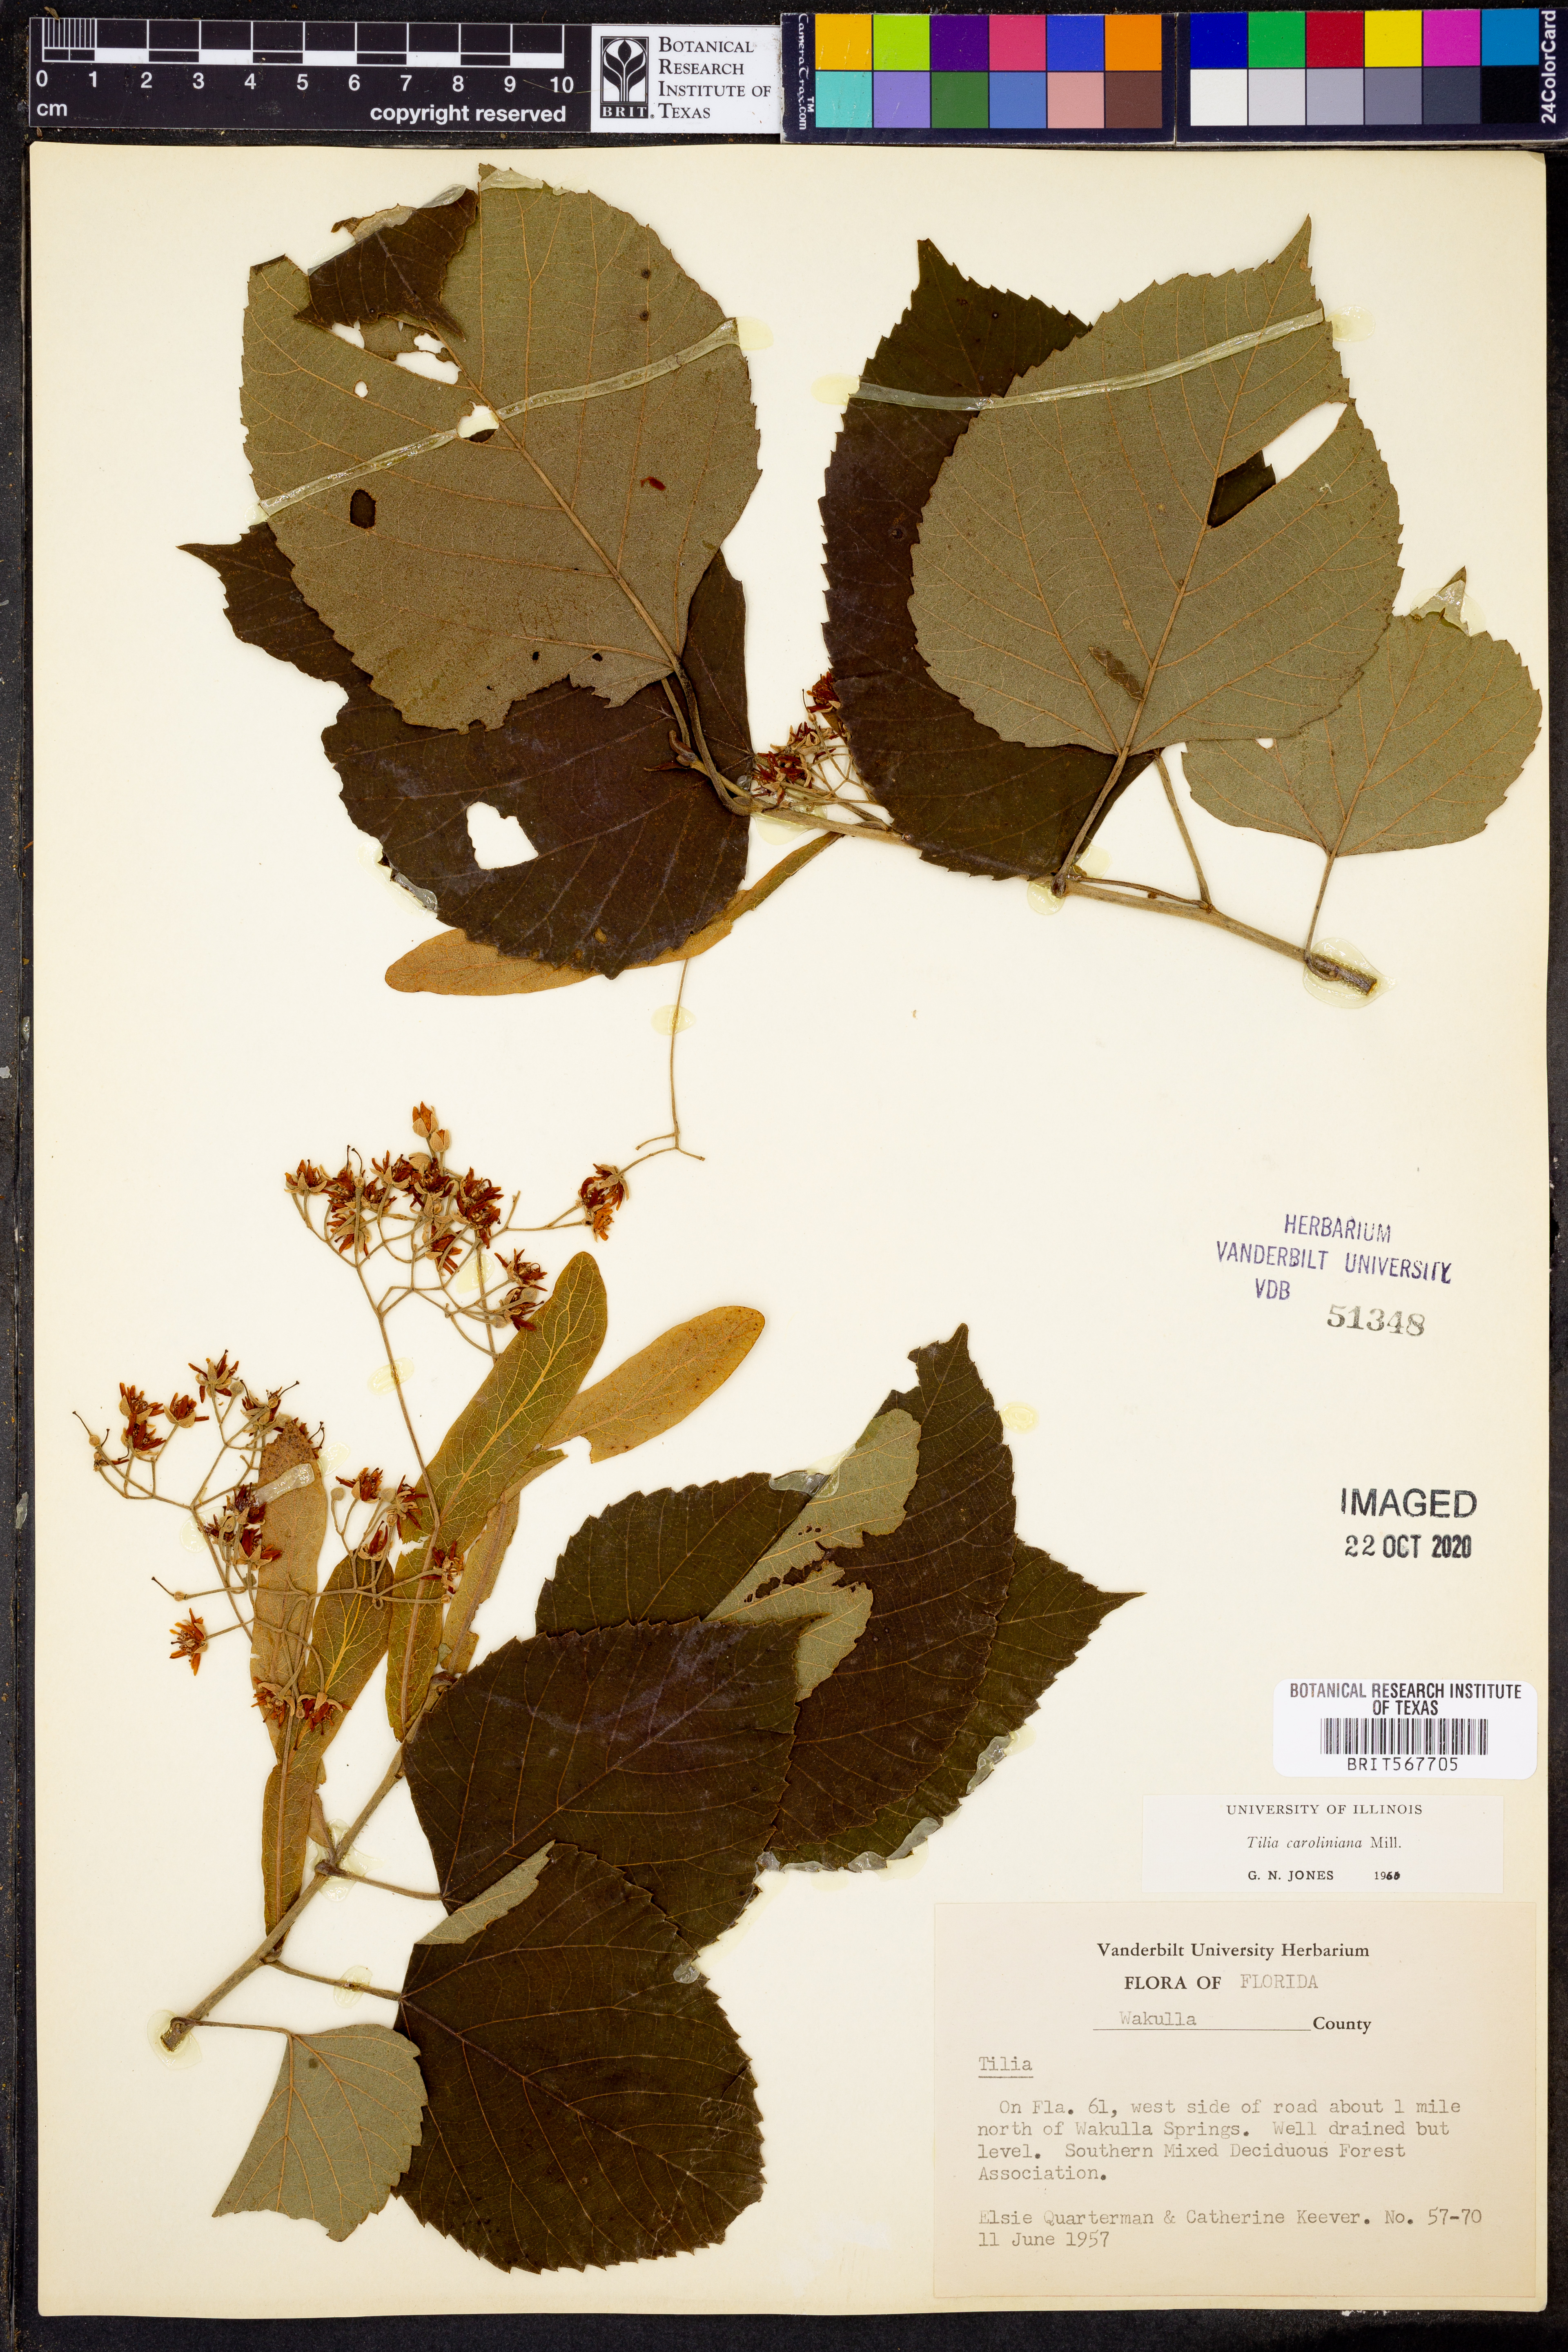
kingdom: Plantae
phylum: Tracheophyta
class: Magnoliopsida
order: Malvales
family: Malvaceae
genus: Tilia
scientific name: Tilia americana
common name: Basswood
